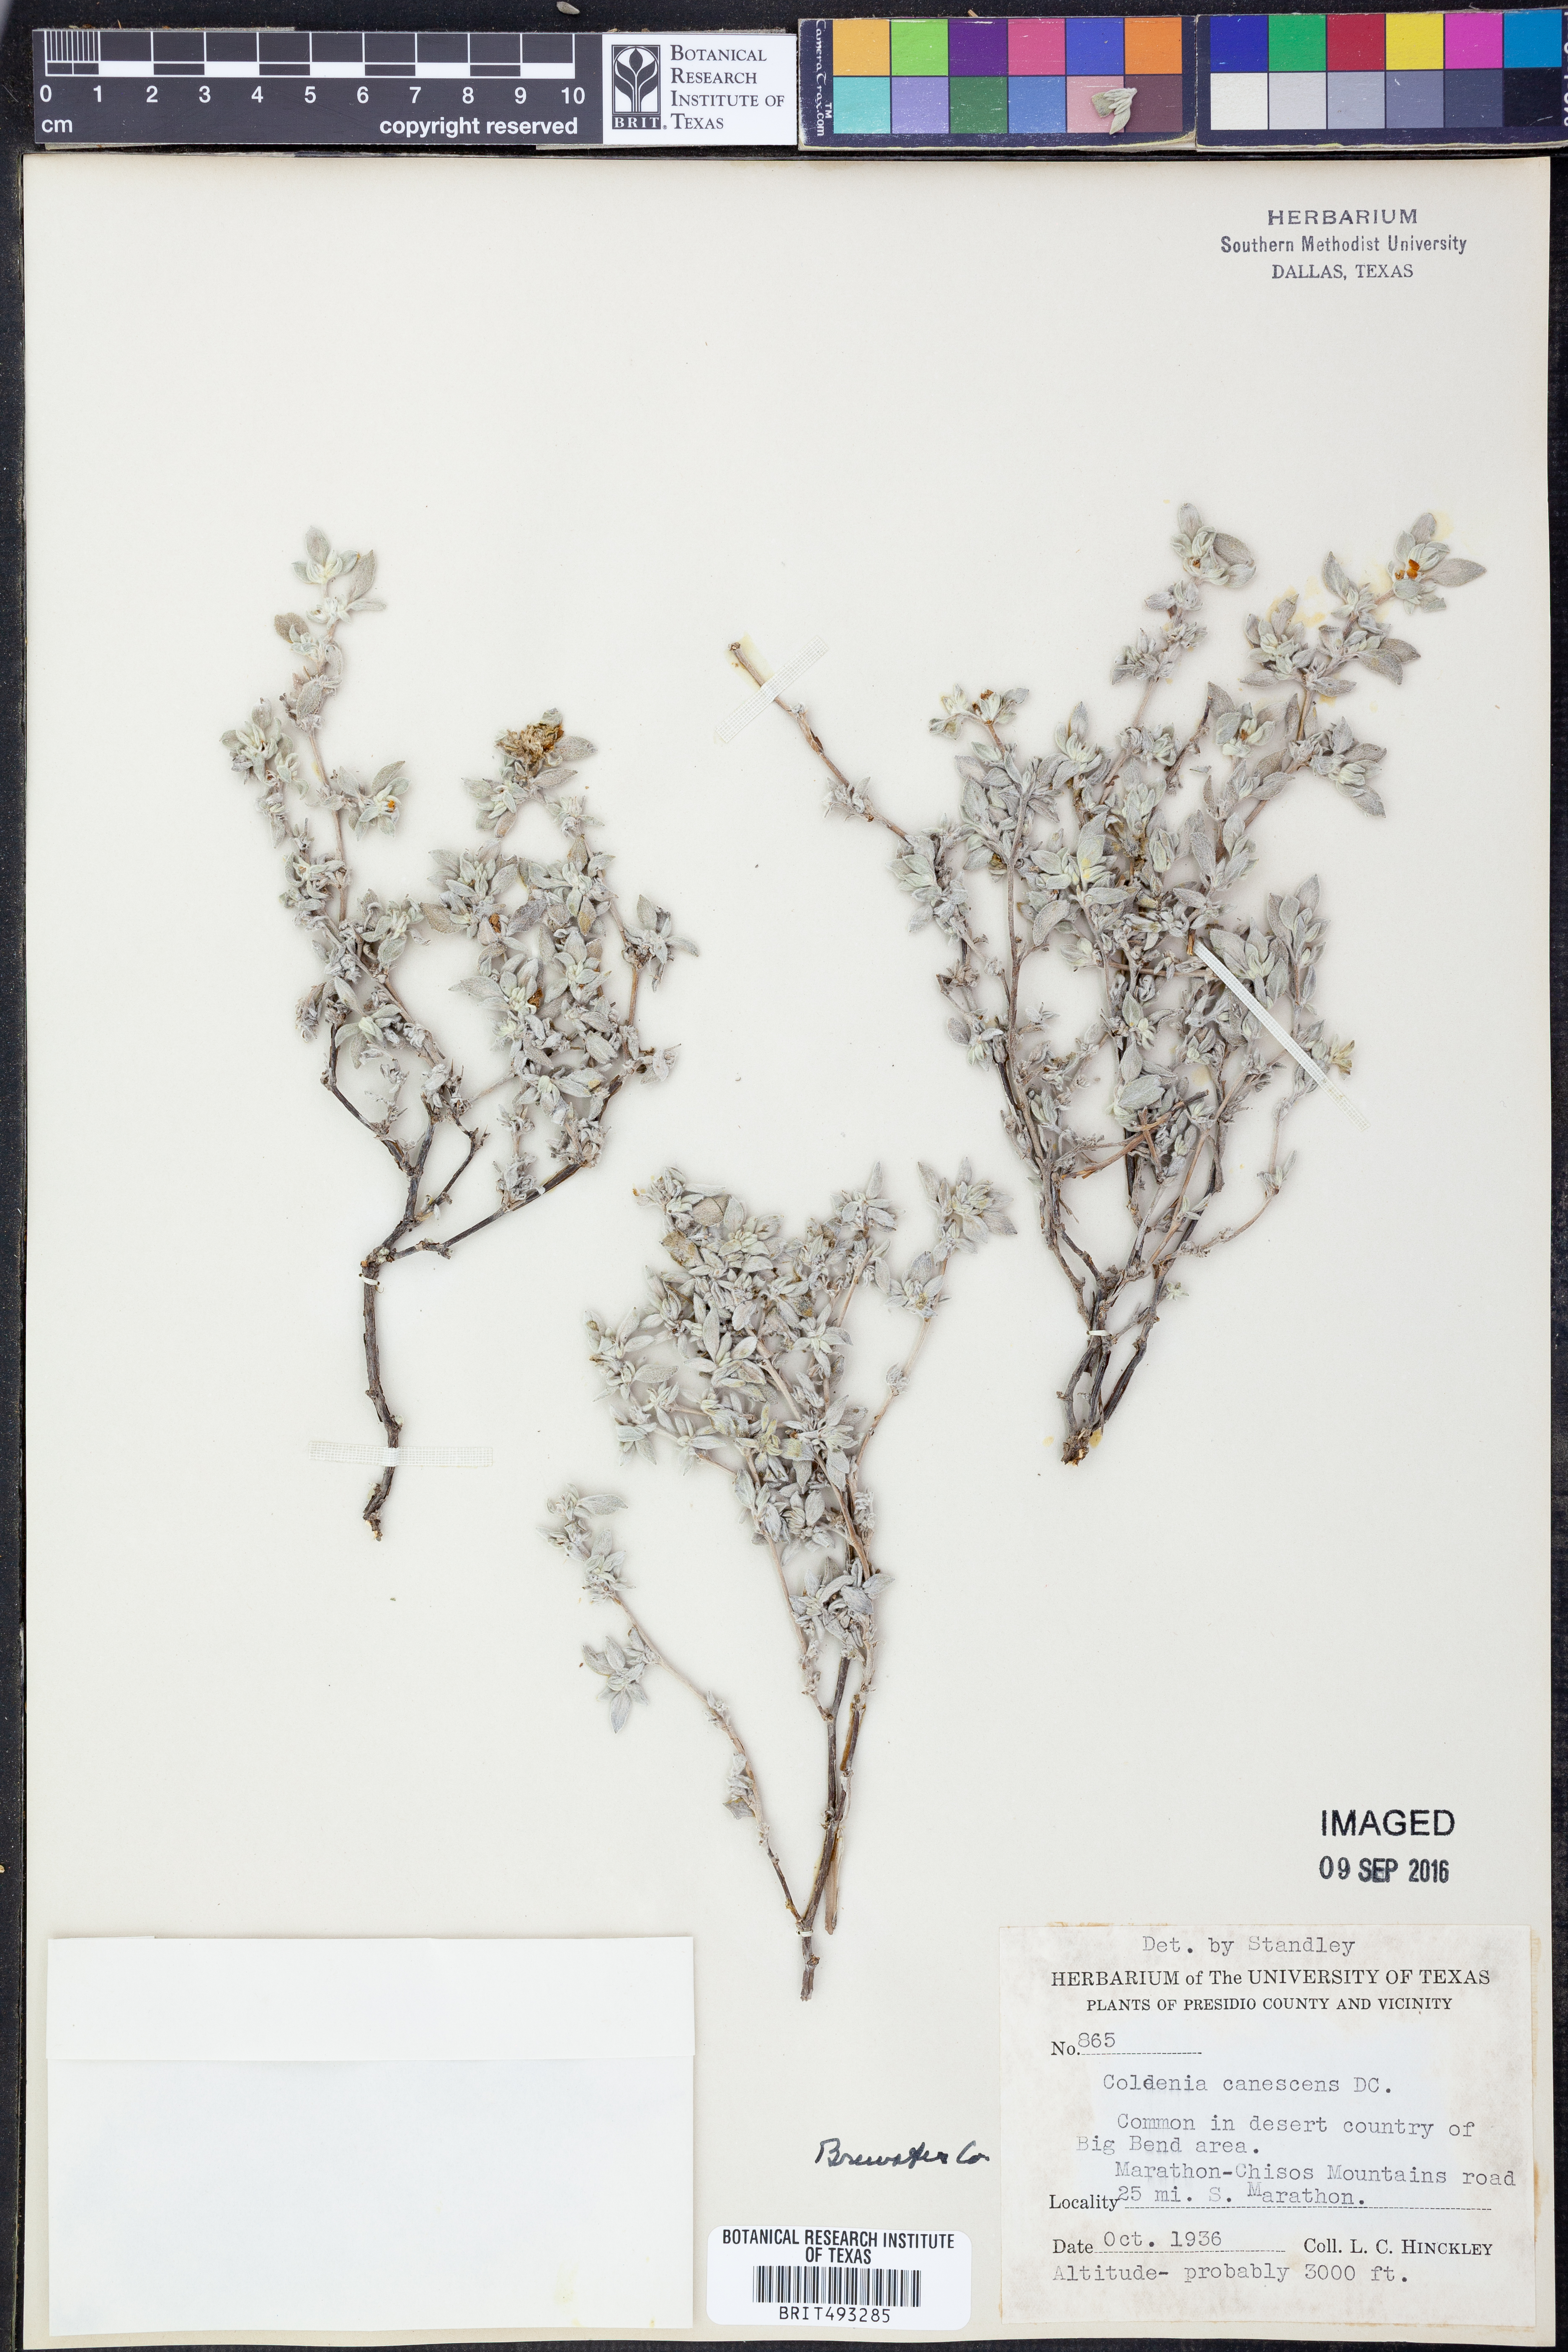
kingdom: Plantae
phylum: Tracheophyta
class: Magnoliopsida
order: Boraginales
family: Ehretiaceae
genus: Tiquilia
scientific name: Tiquilia canescens
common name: Hairy tiquilia
